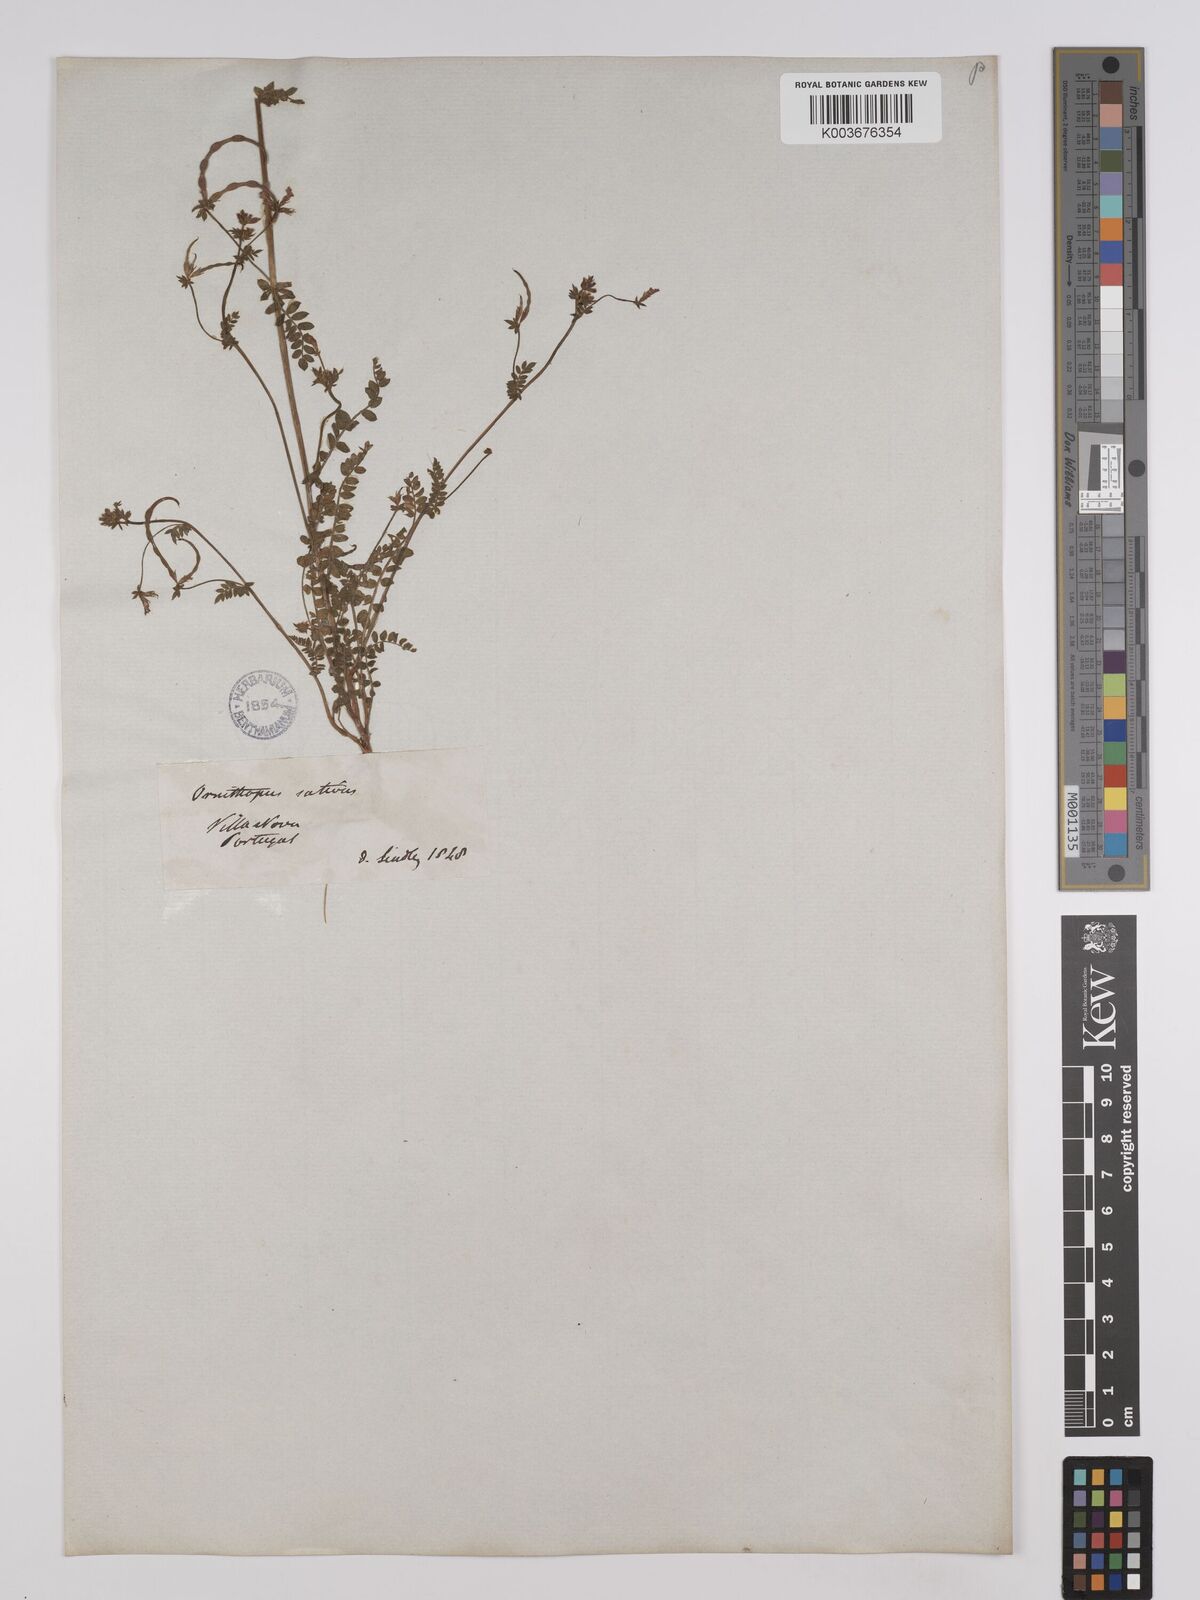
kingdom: Plantae
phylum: Tracheophyta
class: Magnoliopsida
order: Fabales
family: Fabaceae
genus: Ornithopus
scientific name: Ornithopus compressus
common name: Yellow serradella
